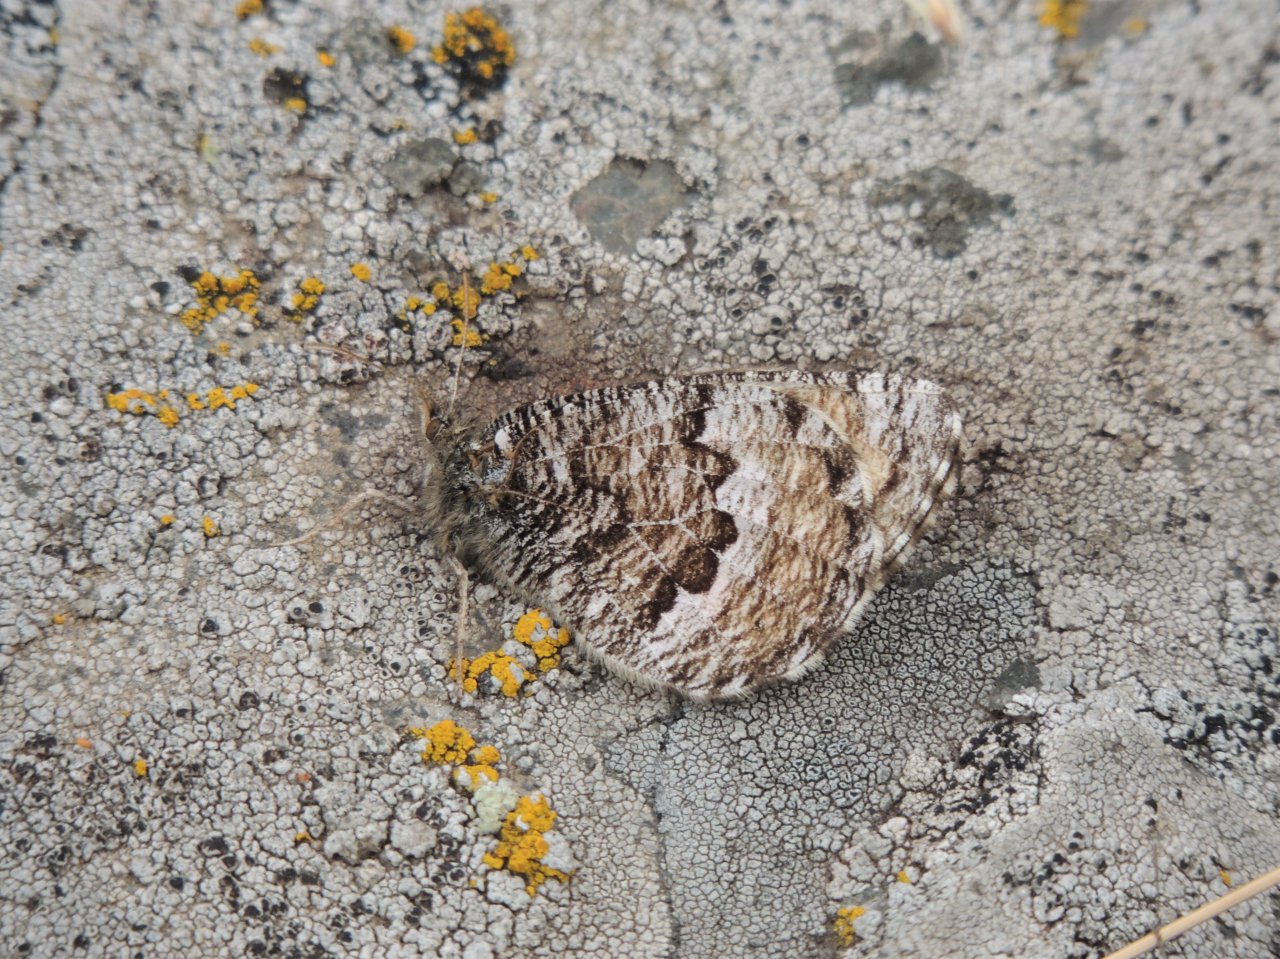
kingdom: Animalia
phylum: Arthropoda
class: Insecta
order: Lepidoptera
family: Nymphalidae
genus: Oeneis
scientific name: Oeneis chryxus
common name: Chryxus Arctic
